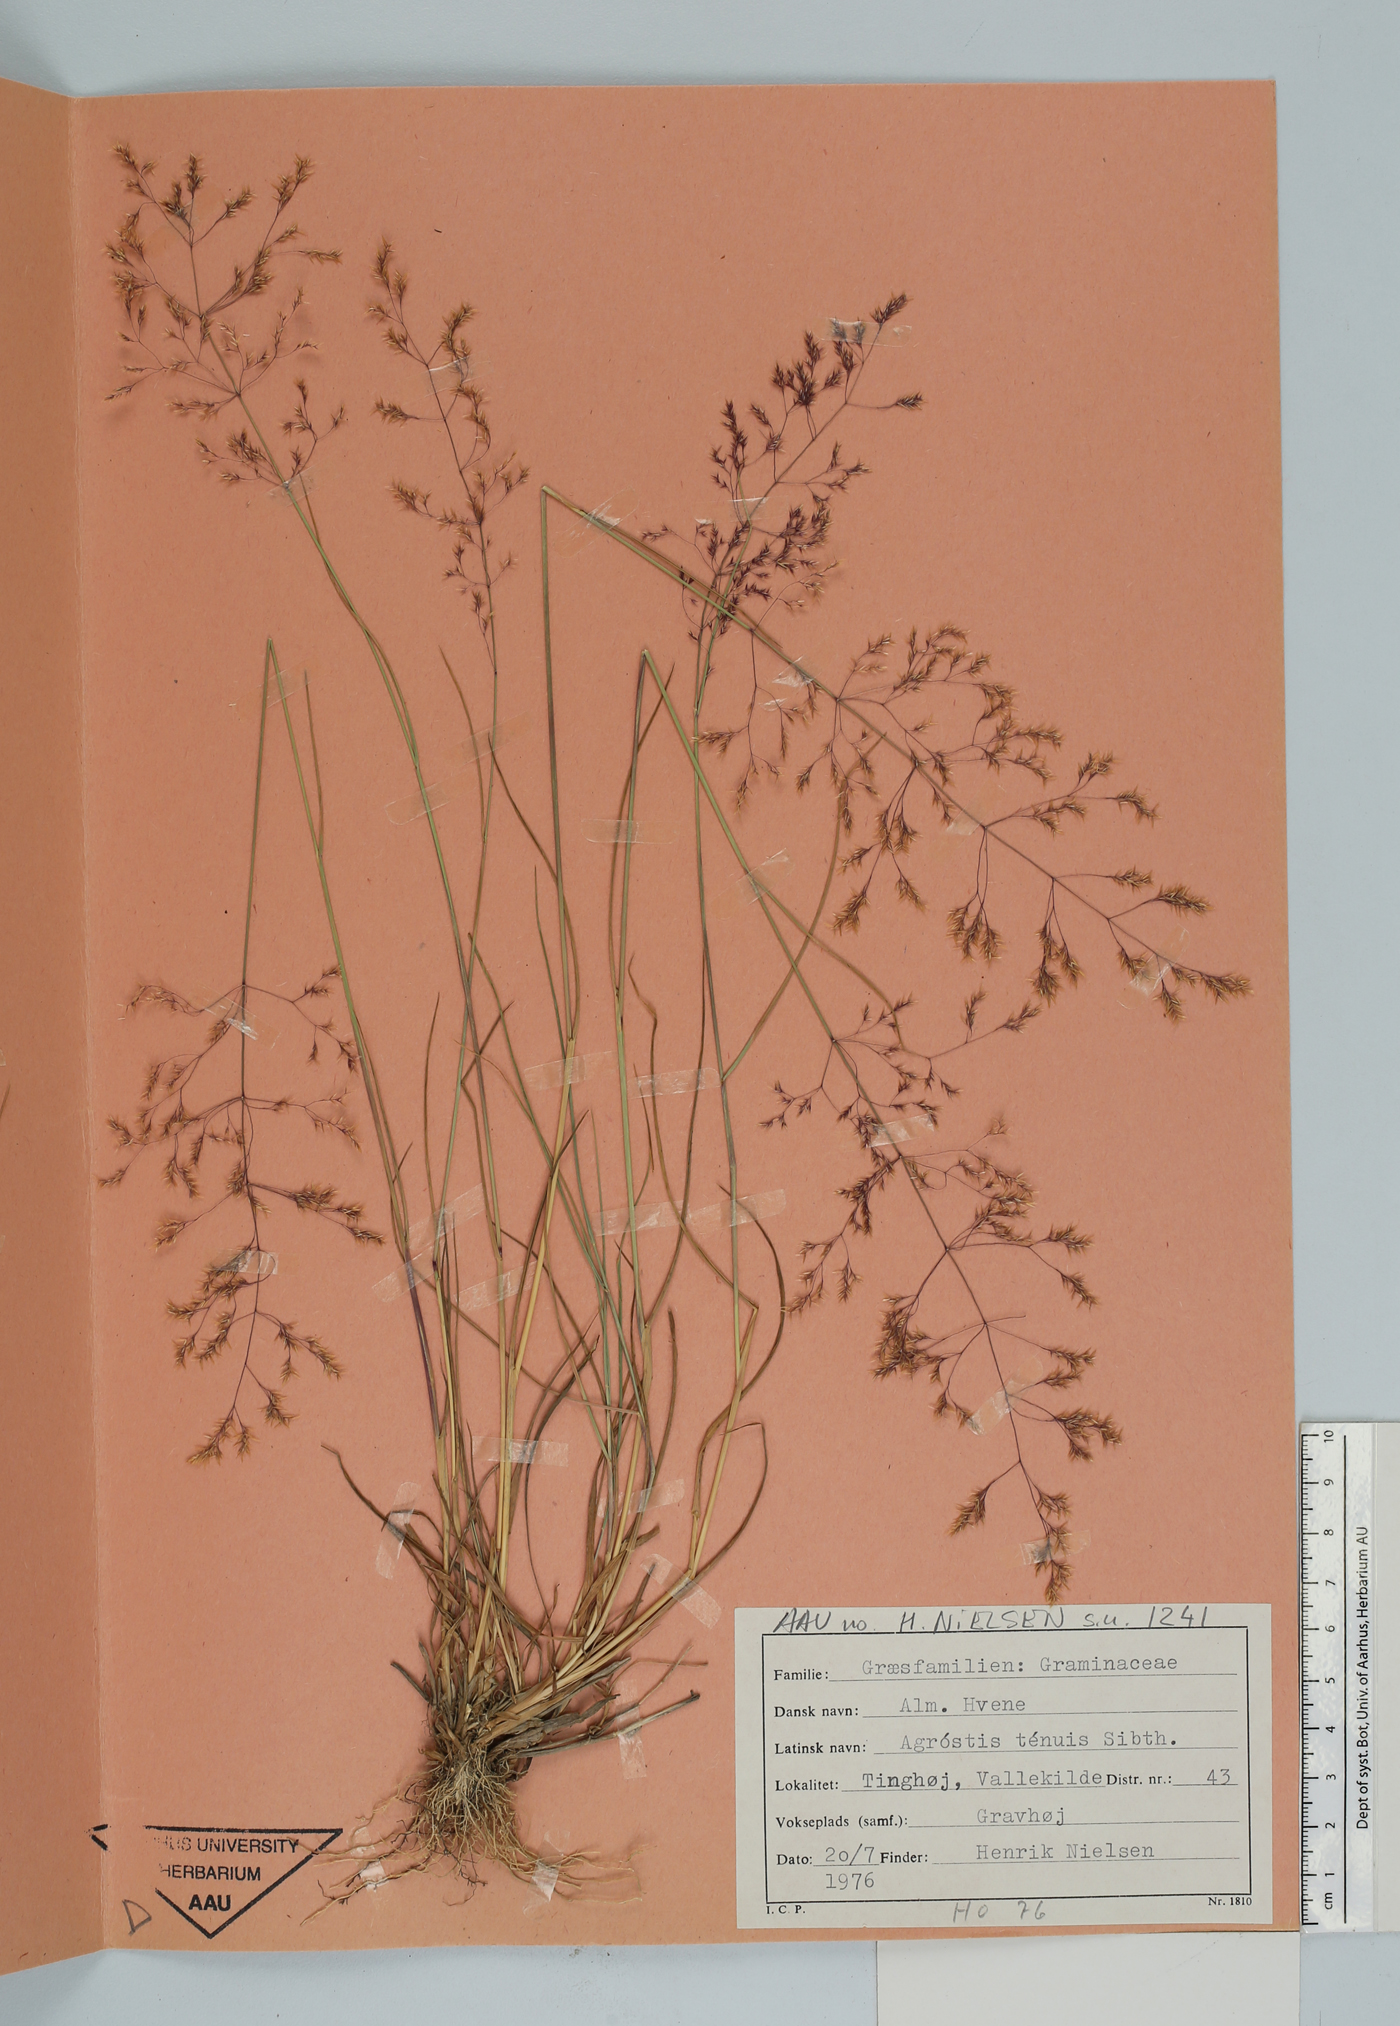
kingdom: Plantae
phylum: Tracheophyta
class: Liliopsida
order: Poales
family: Poaceae
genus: Agrostis
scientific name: Agrostis capillaris
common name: Colonial bentgrass
